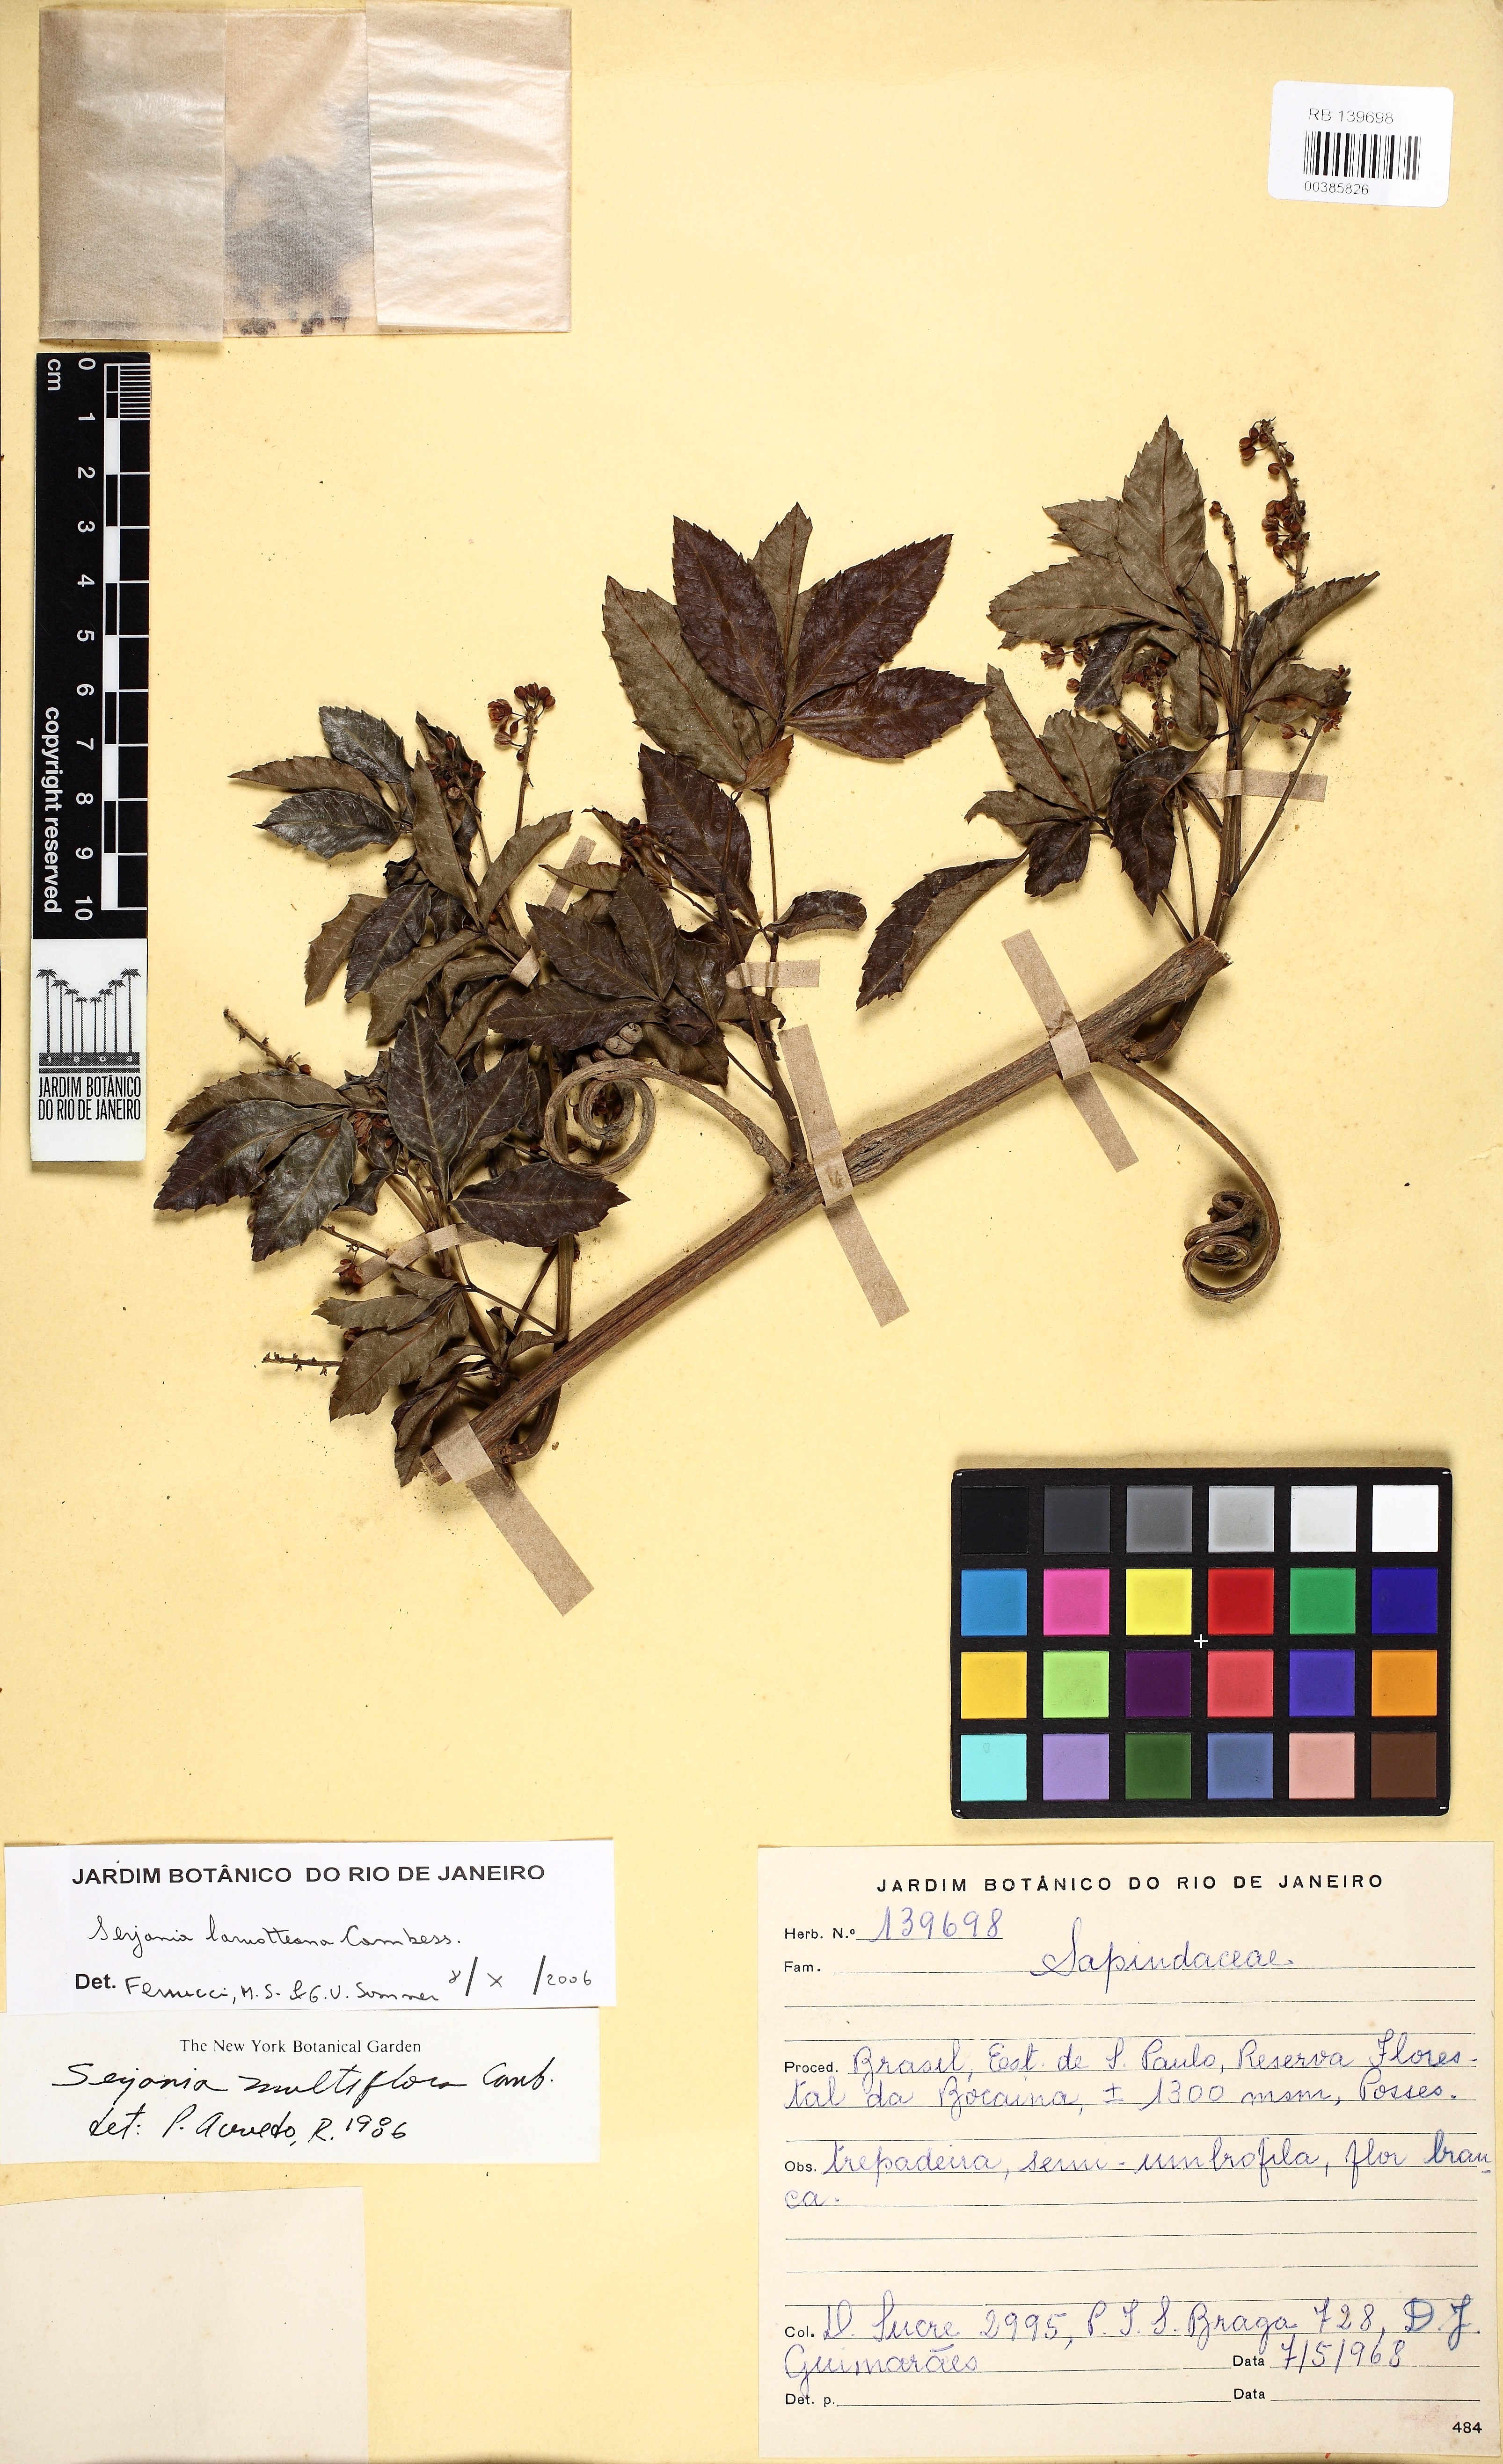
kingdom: Plantae
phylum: Tracheophyta
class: Magnoliopsida
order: Sapindales
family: Sapindaceae
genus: Serjania
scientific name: Serjania laruotteana
